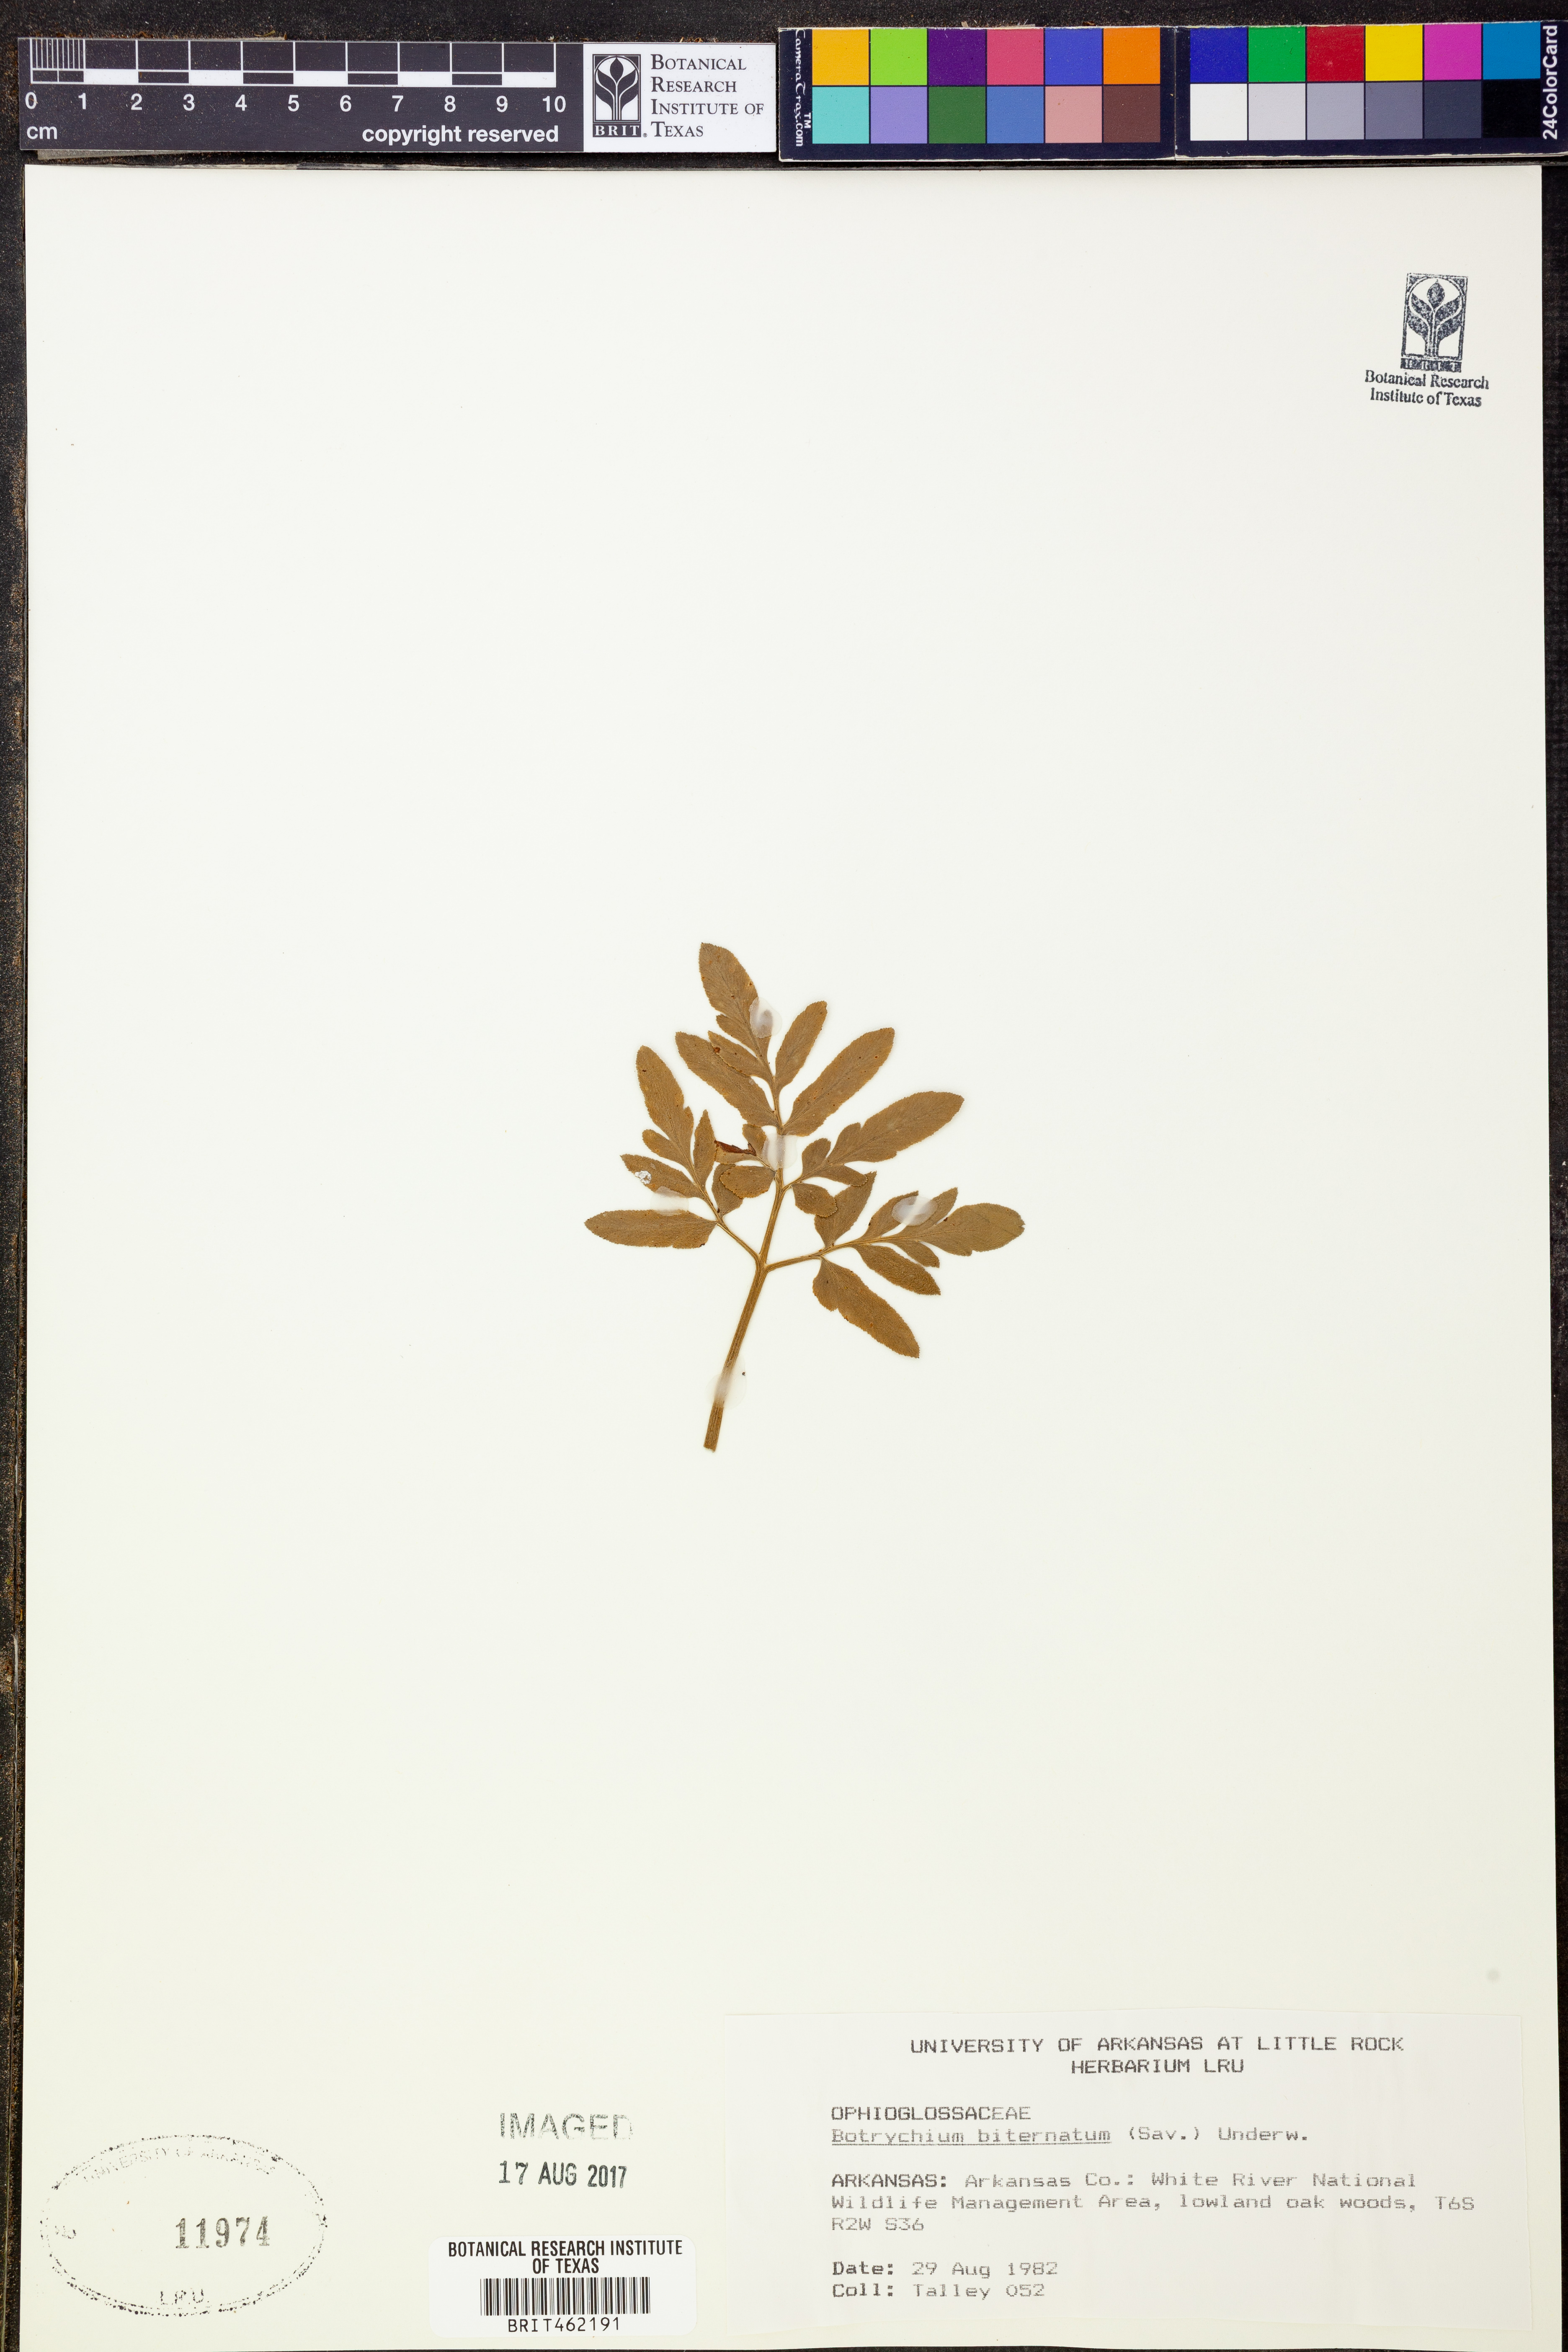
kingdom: Plantae
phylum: Tracheophyta
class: Polypodiopsida
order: Ophioglossales
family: Ophioglossaceae
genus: Sceptridium
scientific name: Sceptridium biternatum
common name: Sparse-lobed grapefern
